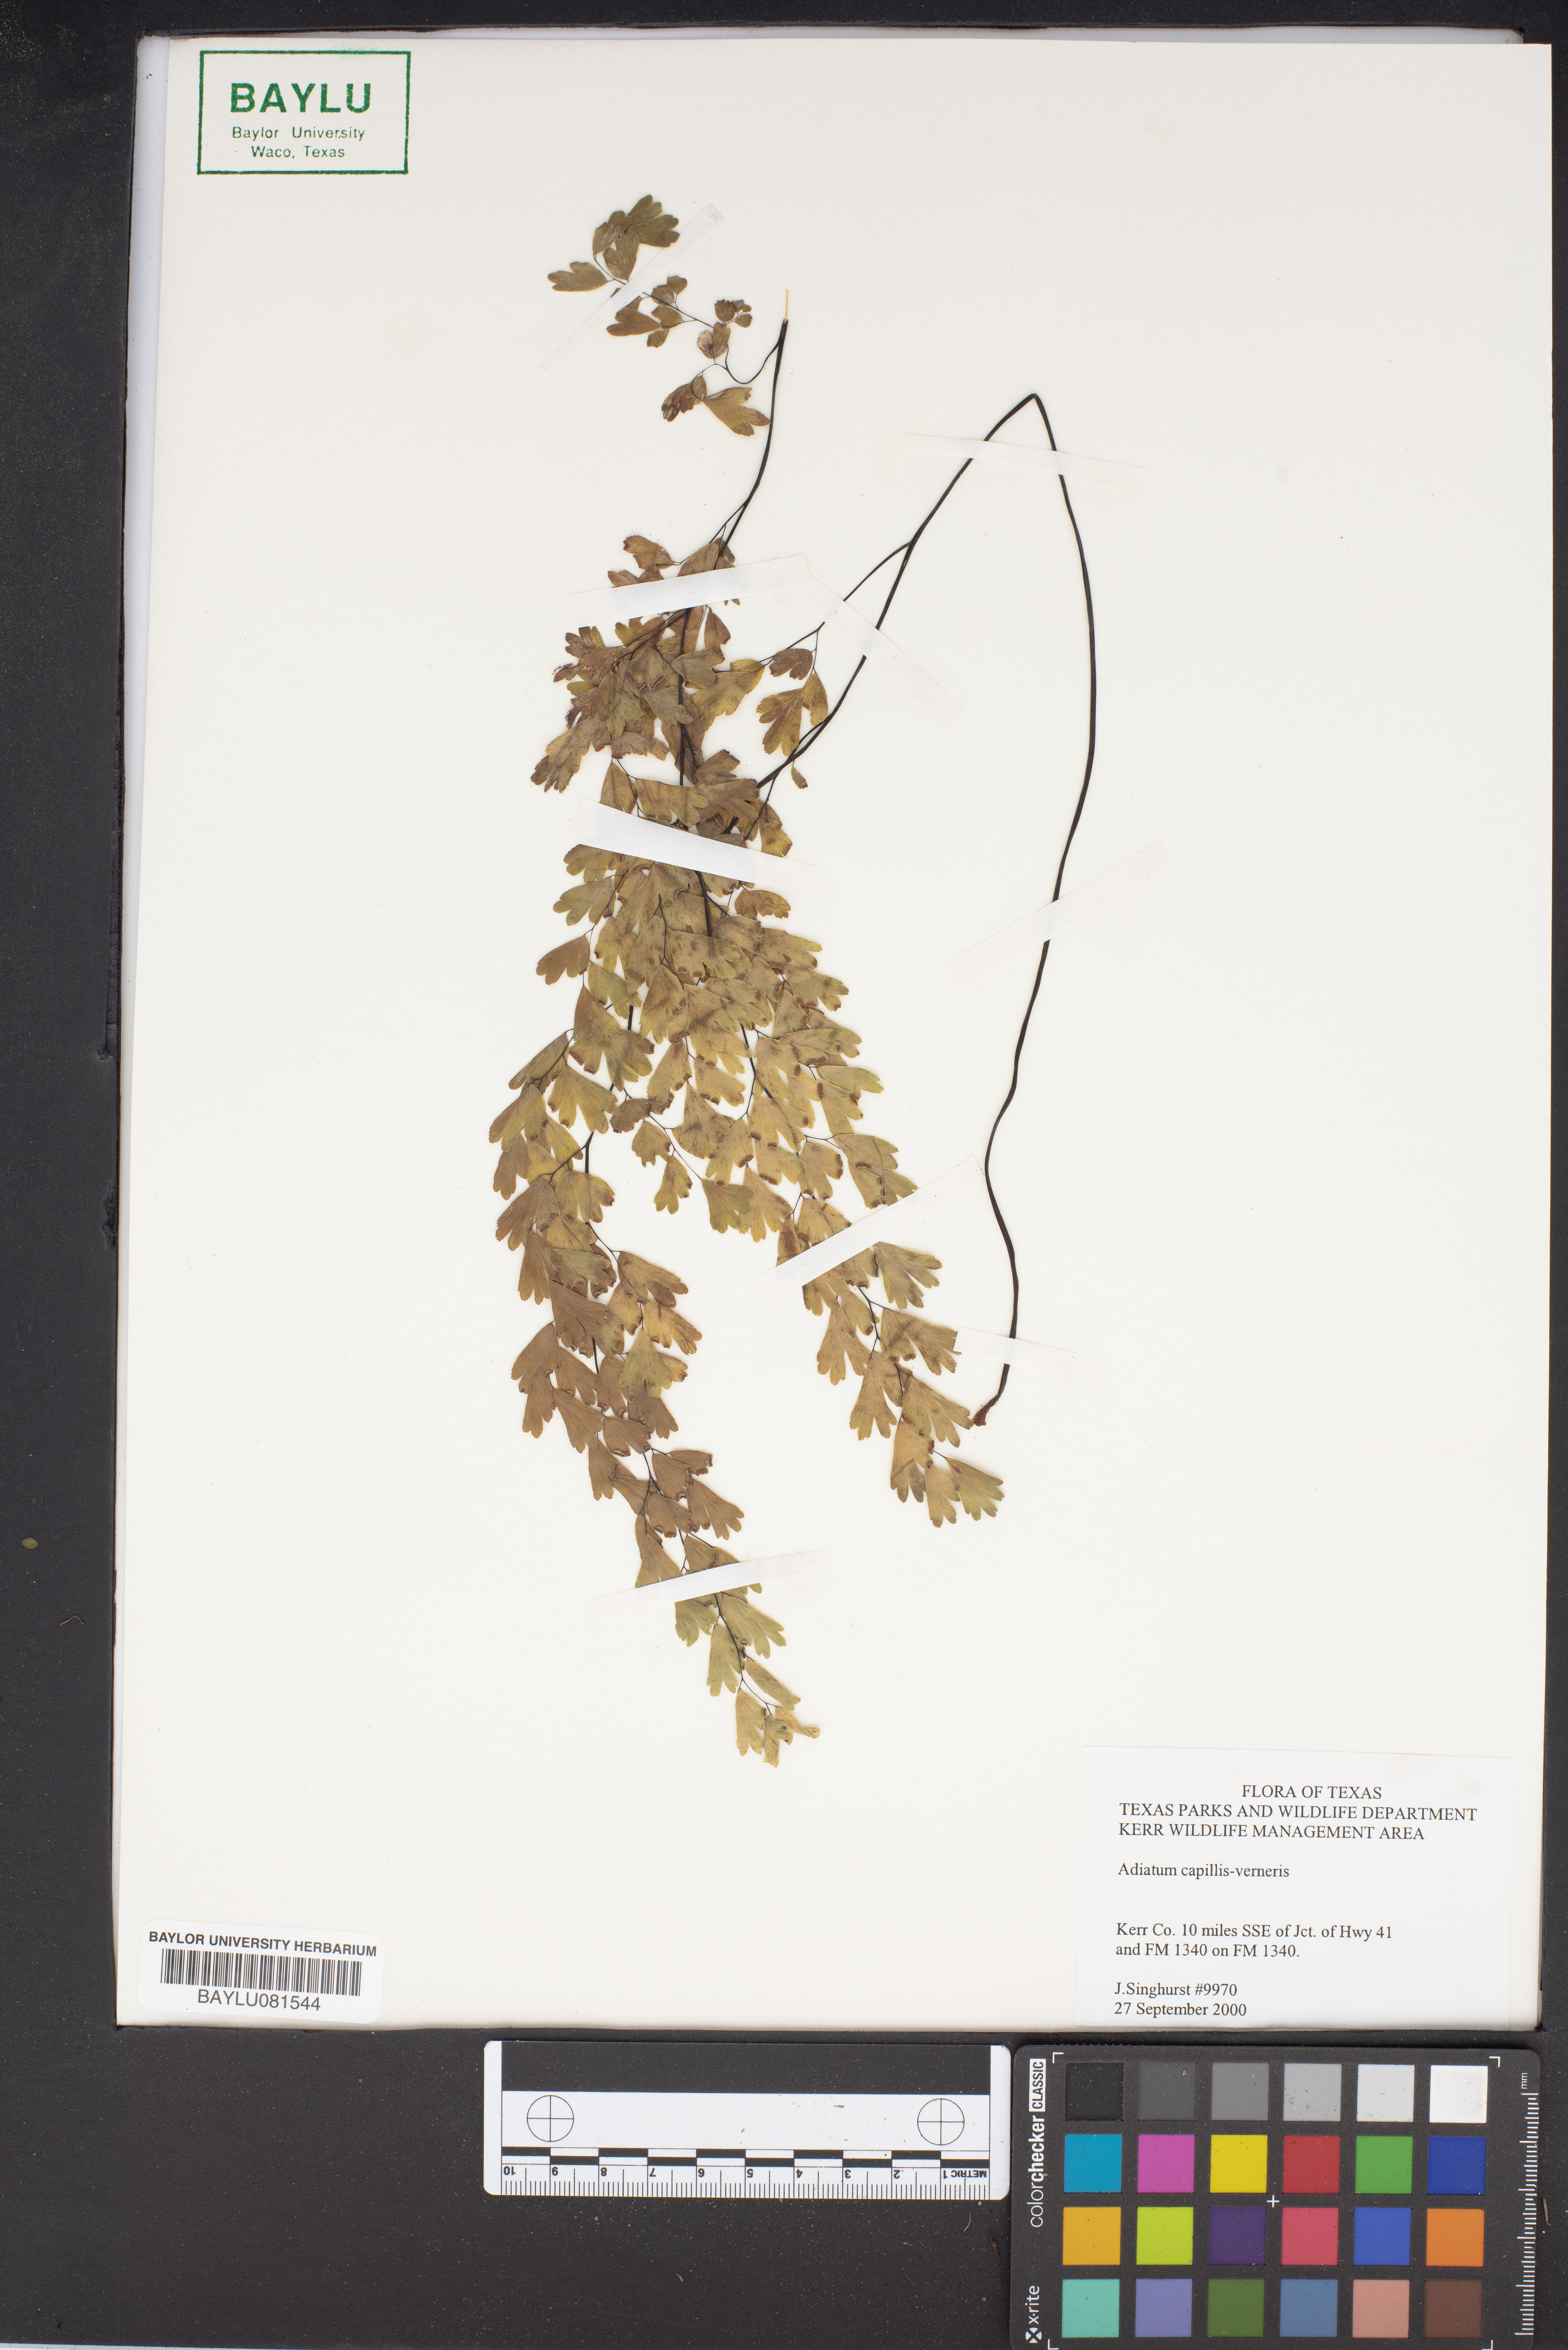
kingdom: Plantae
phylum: Tracheophyta
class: Polypodiopsida
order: Polypodiales
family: Pteridaceae
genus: Adiantum
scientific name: Adiantum capillus-veneris
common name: Maidenhair fern
